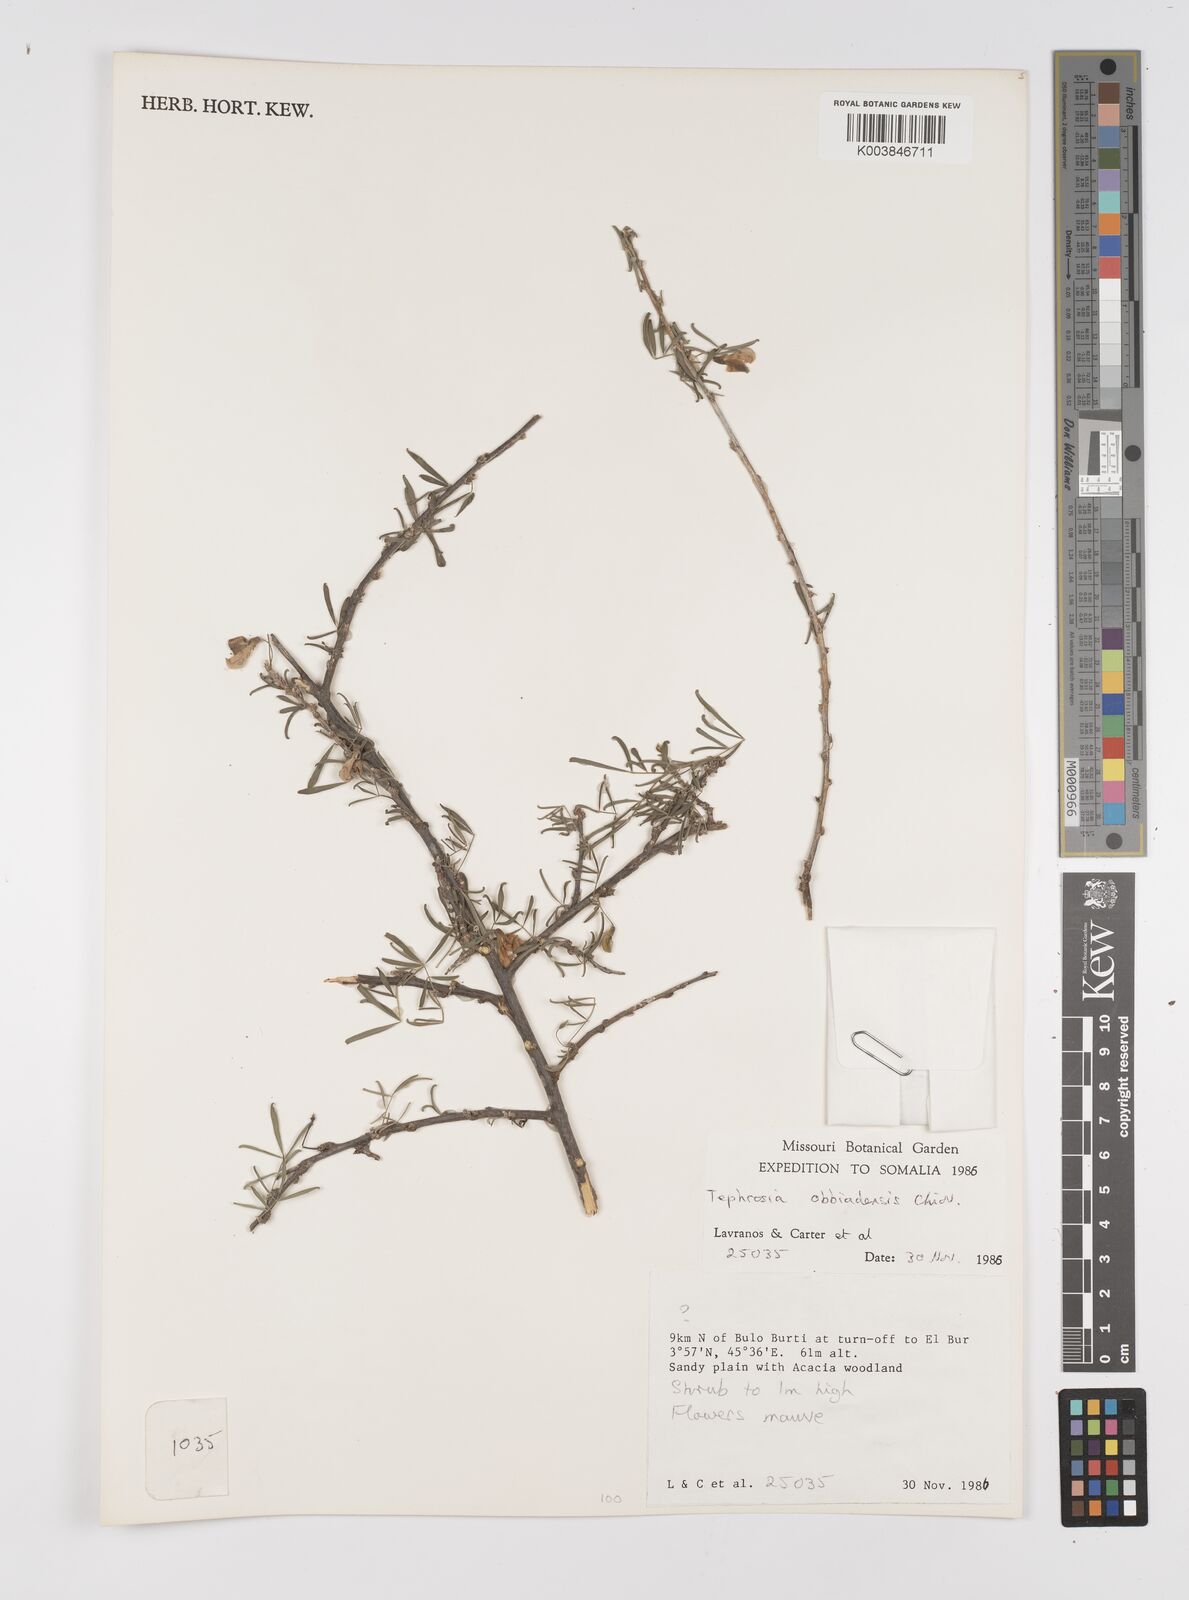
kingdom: Plantae
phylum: Tracheophyta
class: Magnoliopsida
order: Fabales
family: Fabaceae
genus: Tephrosia
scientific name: Tephrosia obbiadensis
